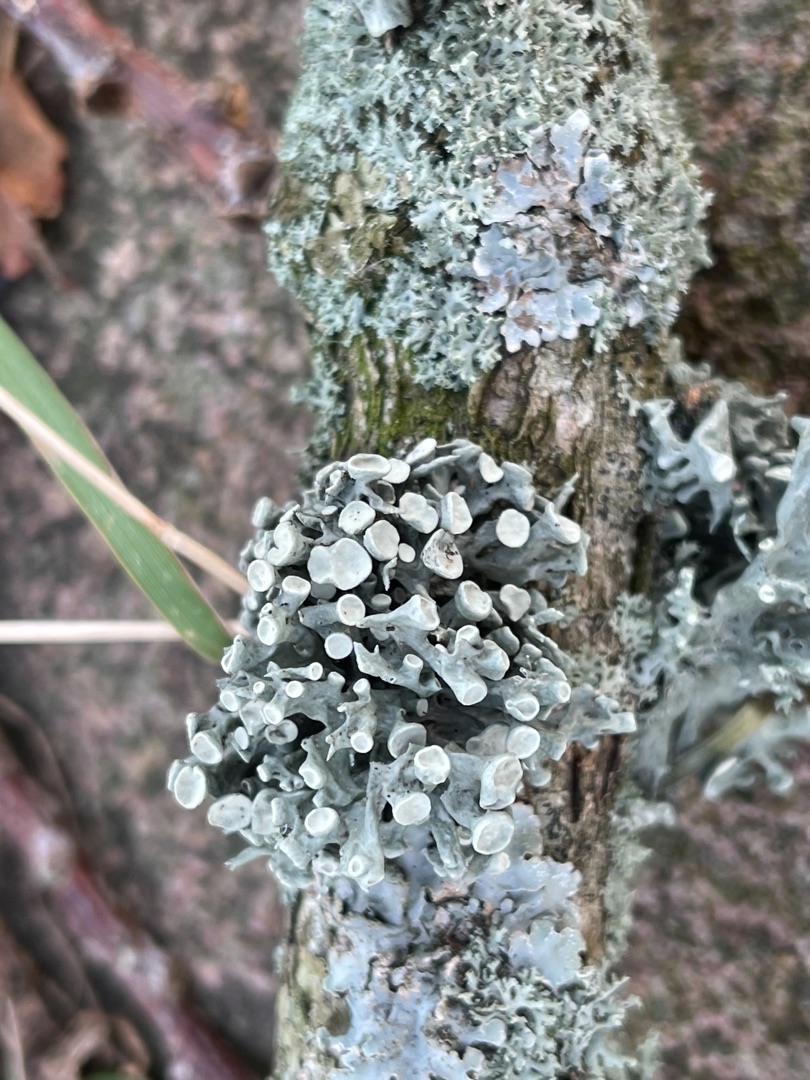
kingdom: Fungi
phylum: Ascomycota
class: Lecanoromycetes
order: Lecanorales
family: Ramalinaceae
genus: Ramalina
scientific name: Ramalina fastigiata
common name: Tue-grenlav
